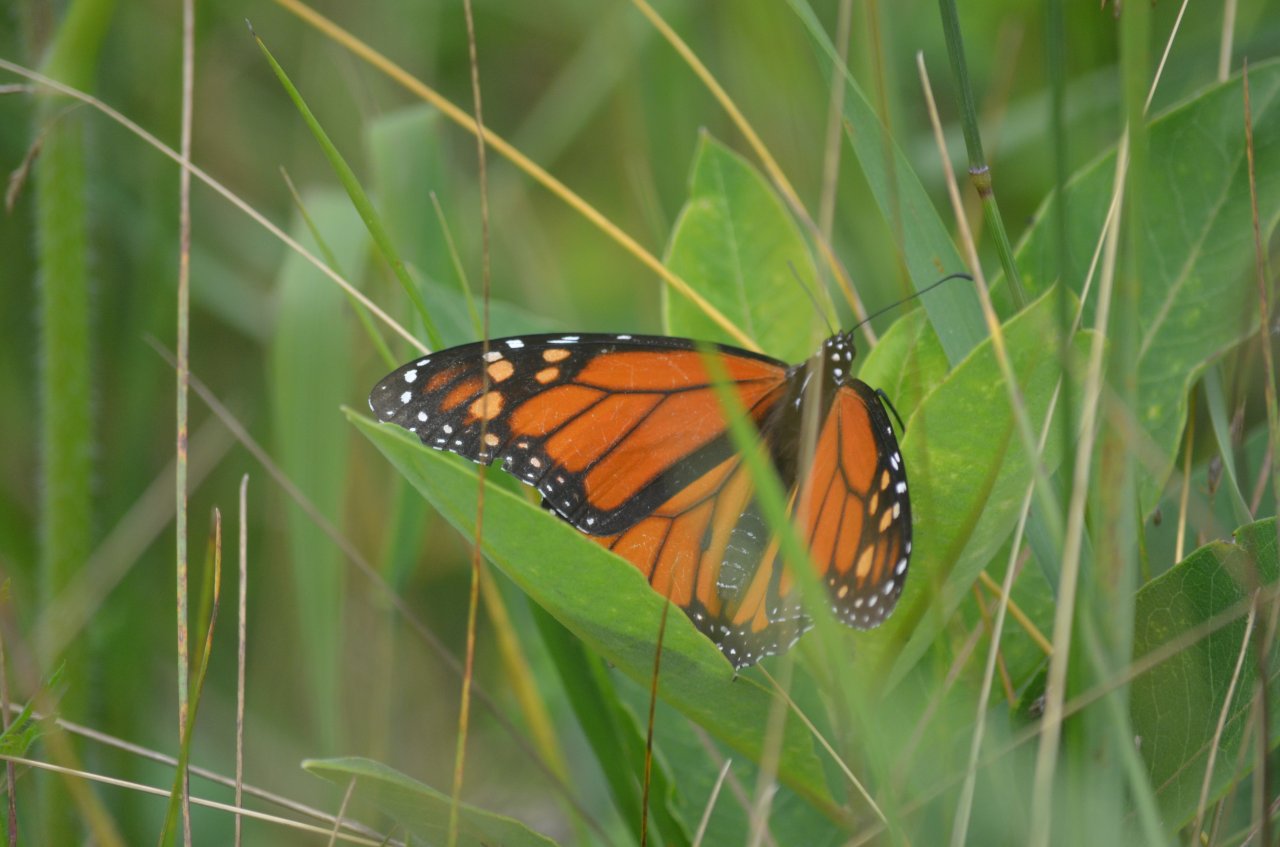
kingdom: Animalia
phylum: Arthropoda
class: Insecta
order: Lepidoptera
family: Nymphalidae
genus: Danaus
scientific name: Danaus plexippus
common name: Monarch
